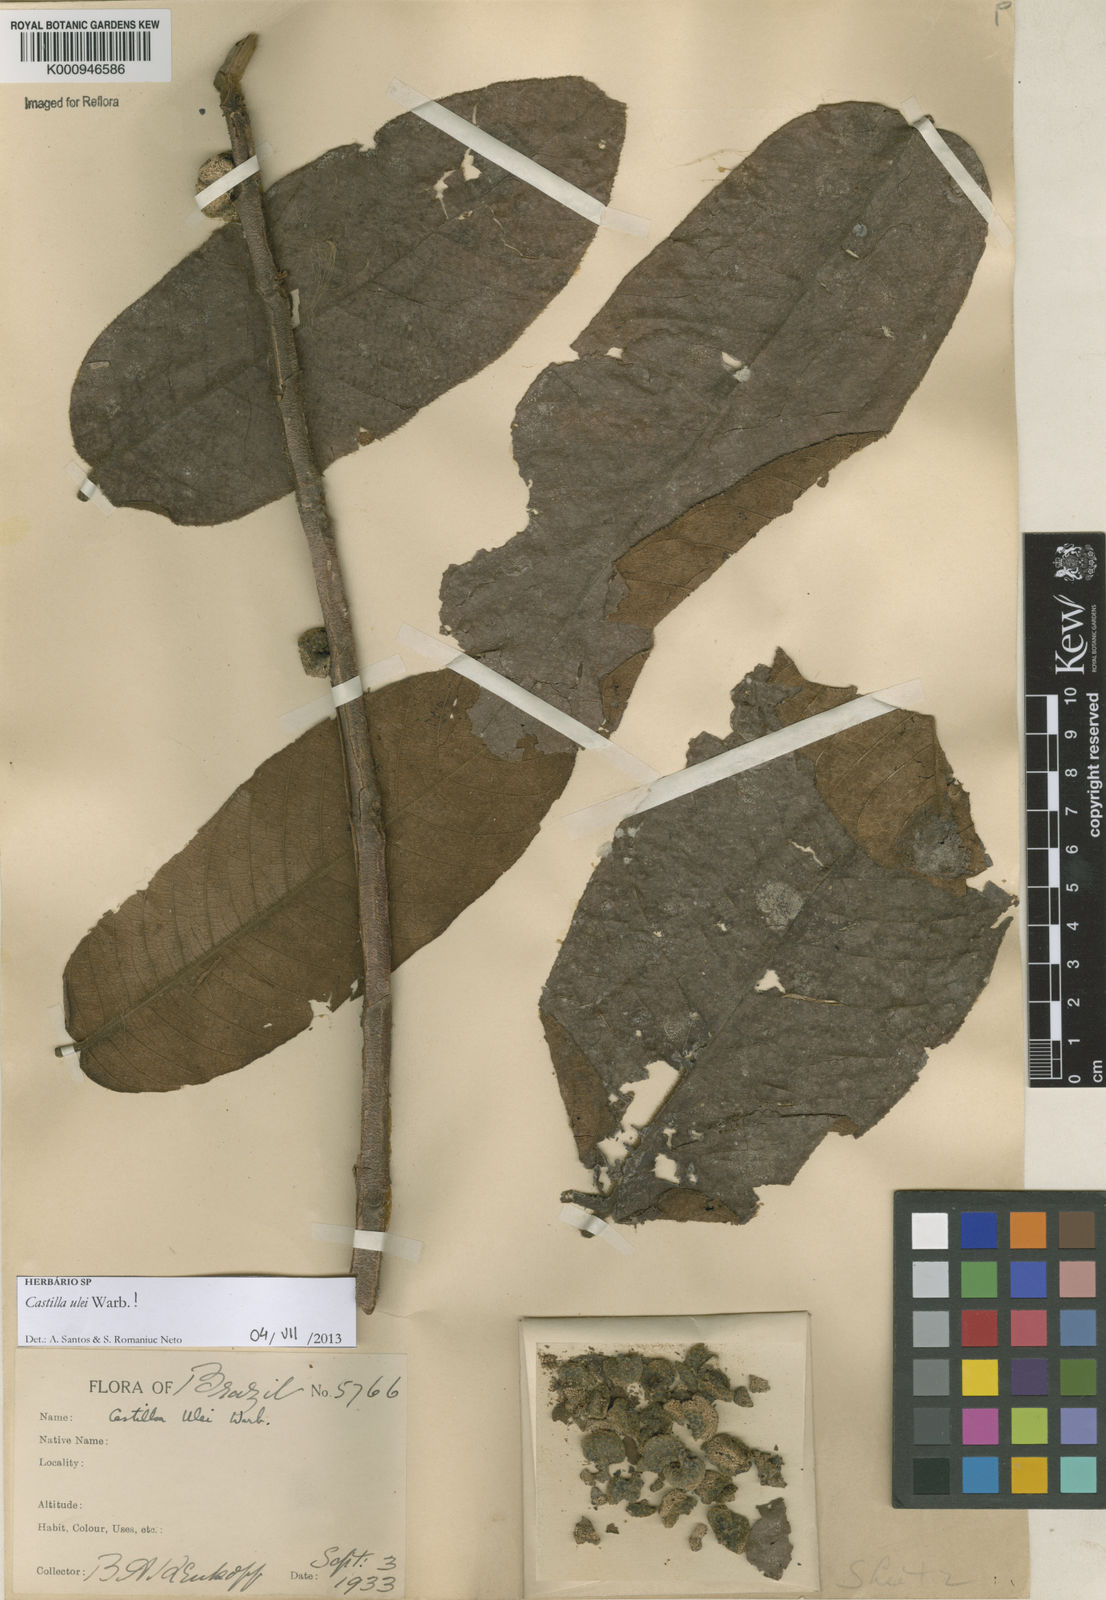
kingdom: Plantae
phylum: Tracheophyta
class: Magnoliopsida
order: Rosales
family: Moraceae
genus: Castilla
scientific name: Castilla ulei
